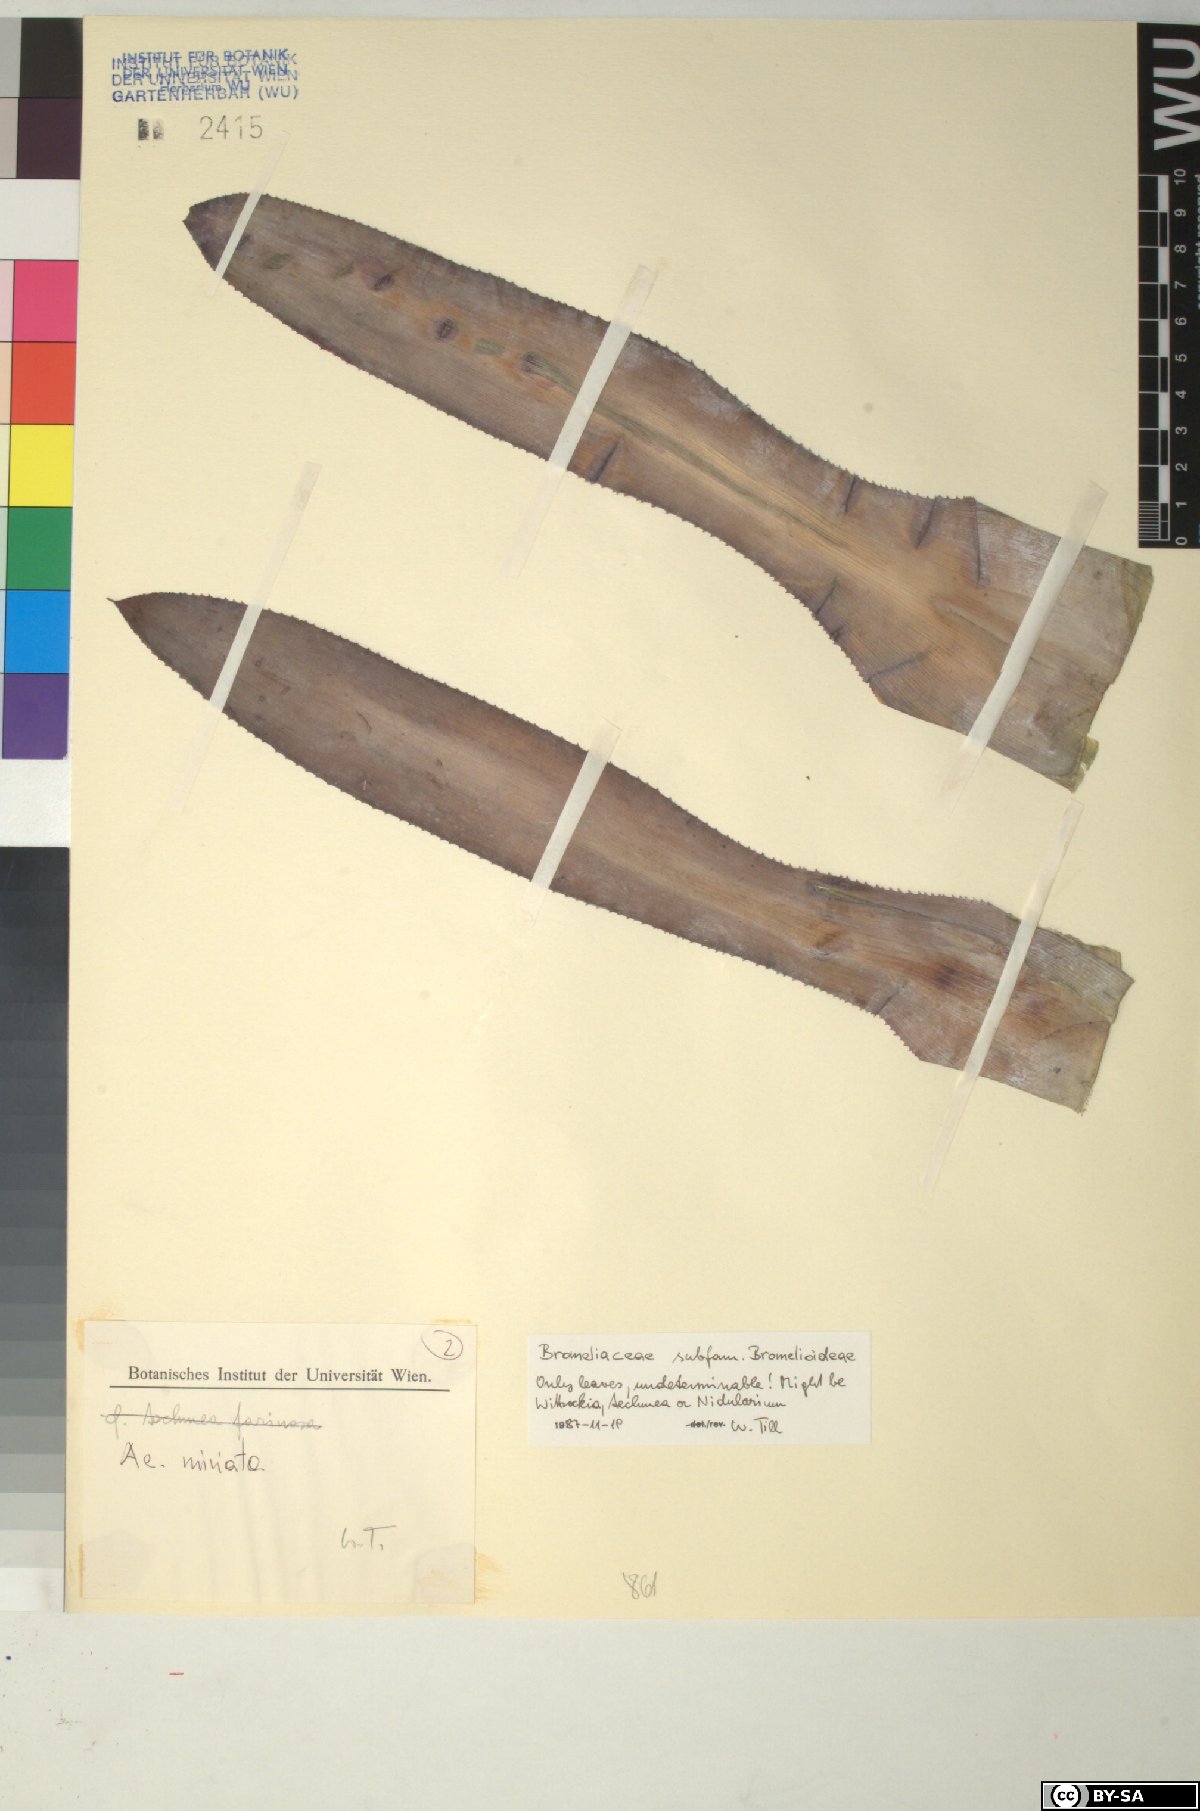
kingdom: Plantae
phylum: Tracheophyta
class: Liliopsida
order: Poales
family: Bromeliaceae
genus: Aechmea
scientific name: Aechmea miniata
